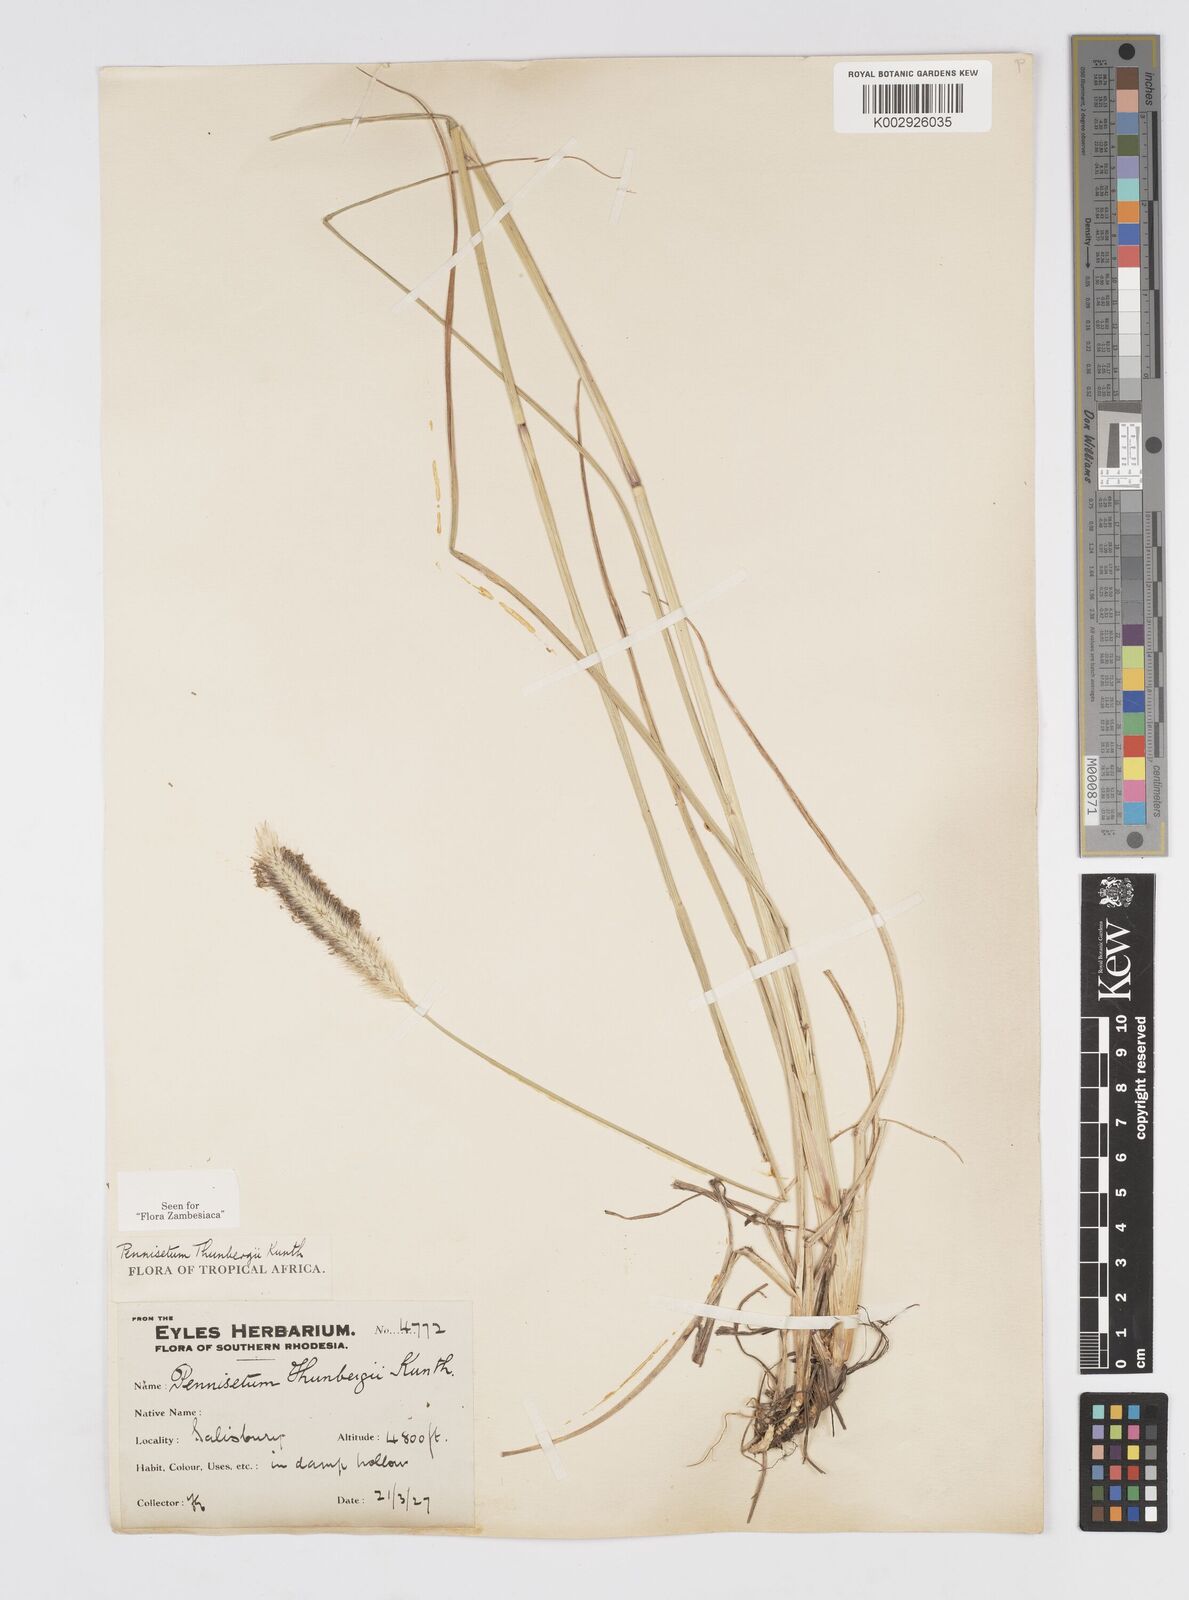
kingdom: Plantae
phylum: Tracheophyta
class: Liliopsida
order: Poales
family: Poaceae
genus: Cenchrus
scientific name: Cenchrus geniculatus
